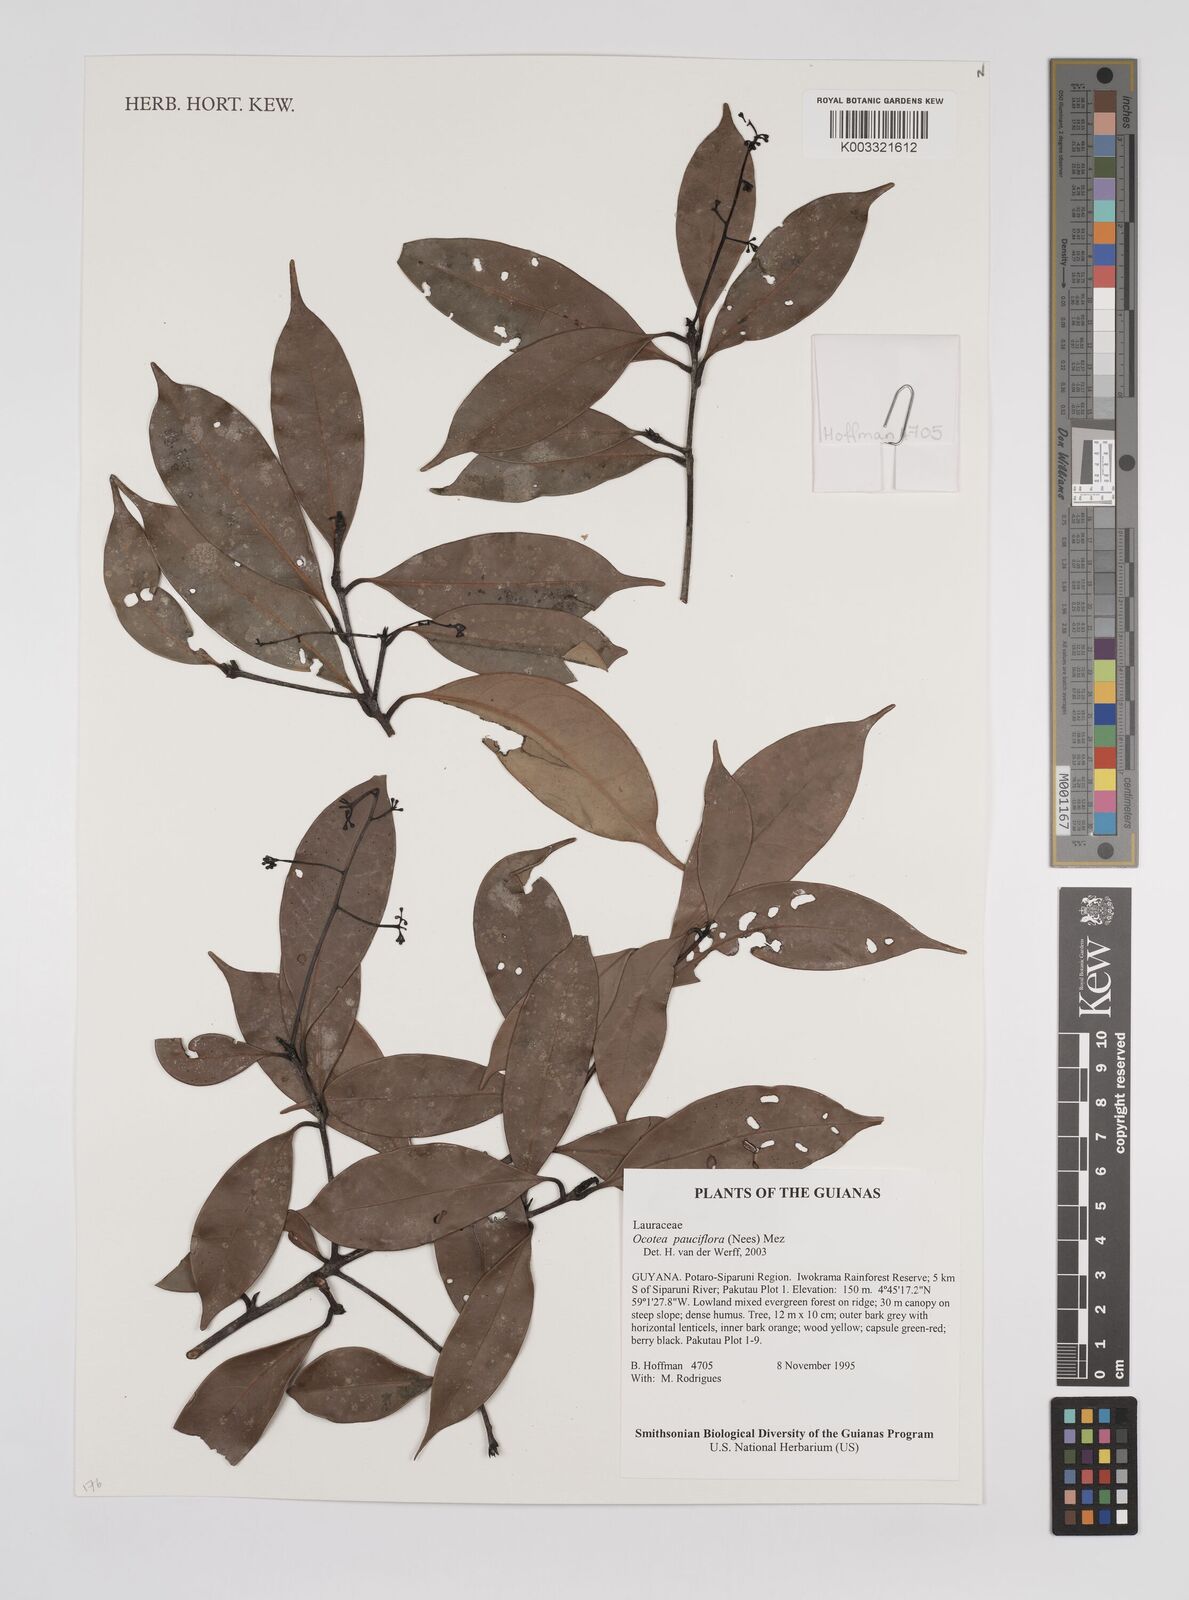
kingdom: Plantae
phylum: Tracheophyta
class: Magnoliopsida
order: Laurales
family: Lauraceae
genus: Ocotea
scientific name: Ocotea pauciflora
